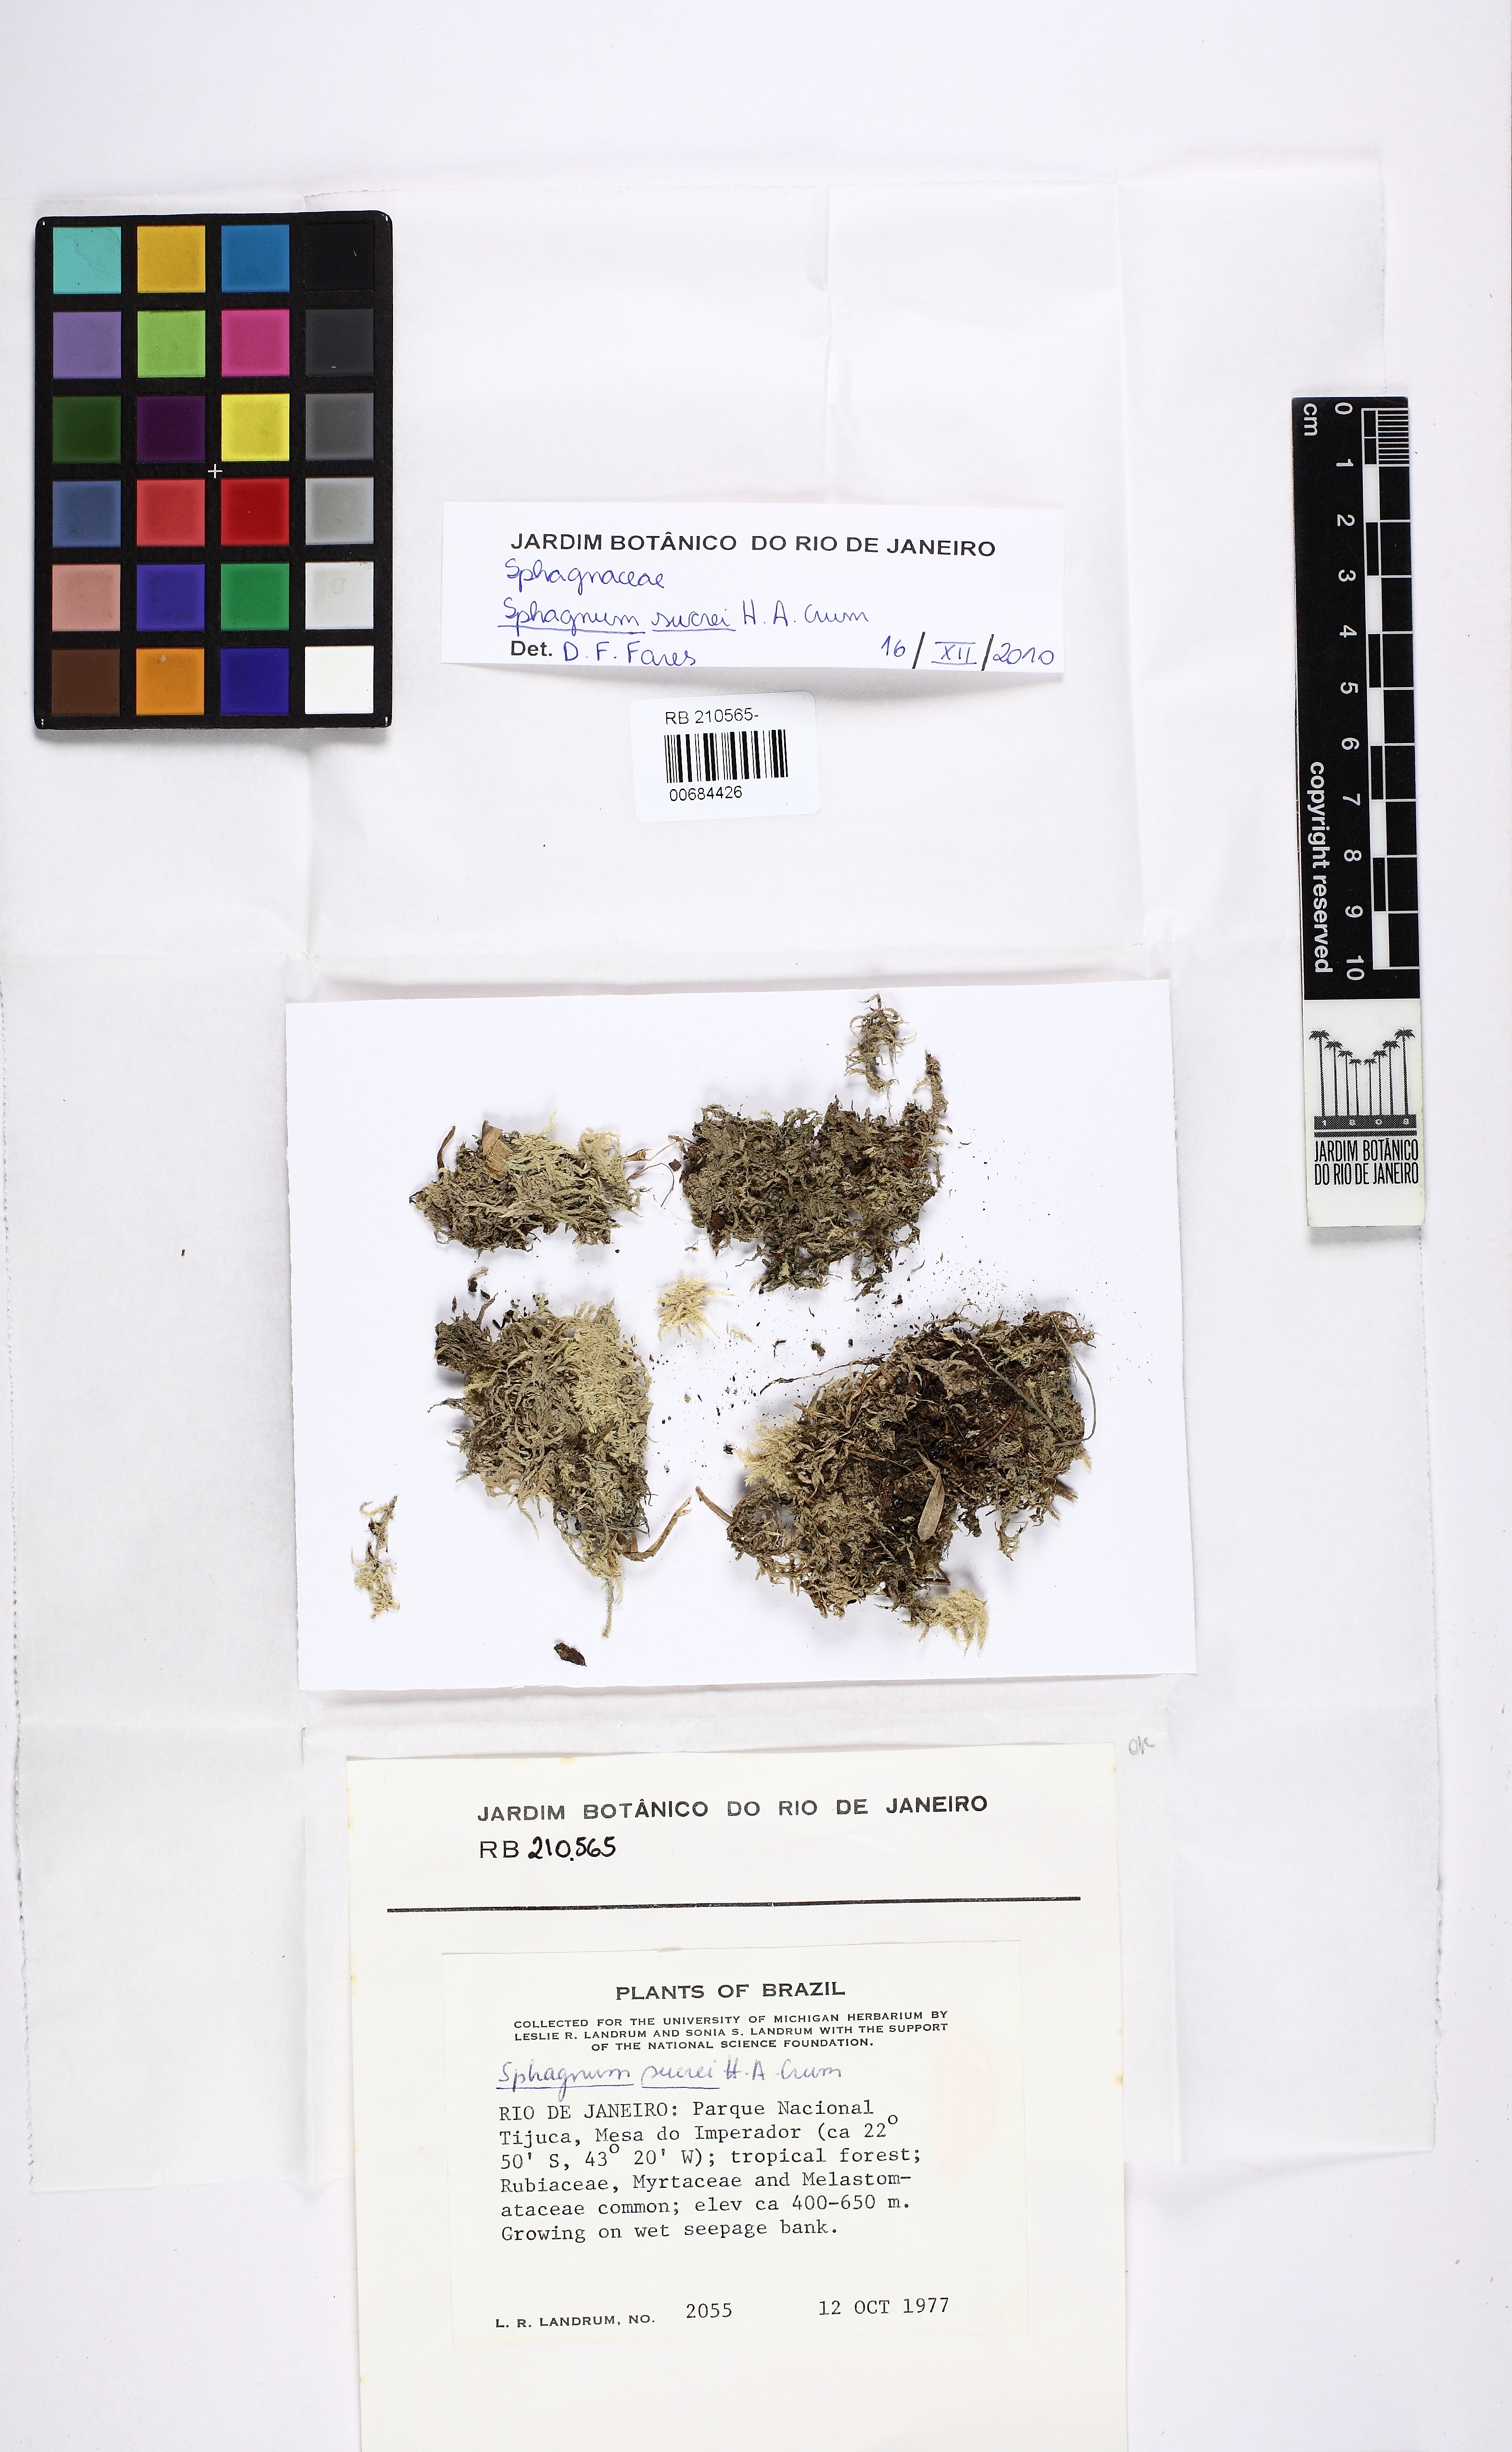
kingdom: Plantae
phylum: Bryophyta
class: Sphagnopsida
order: Sphagnales
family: Sphagnaceae
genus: Sphagnum
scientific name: Sphagnum sucrei
